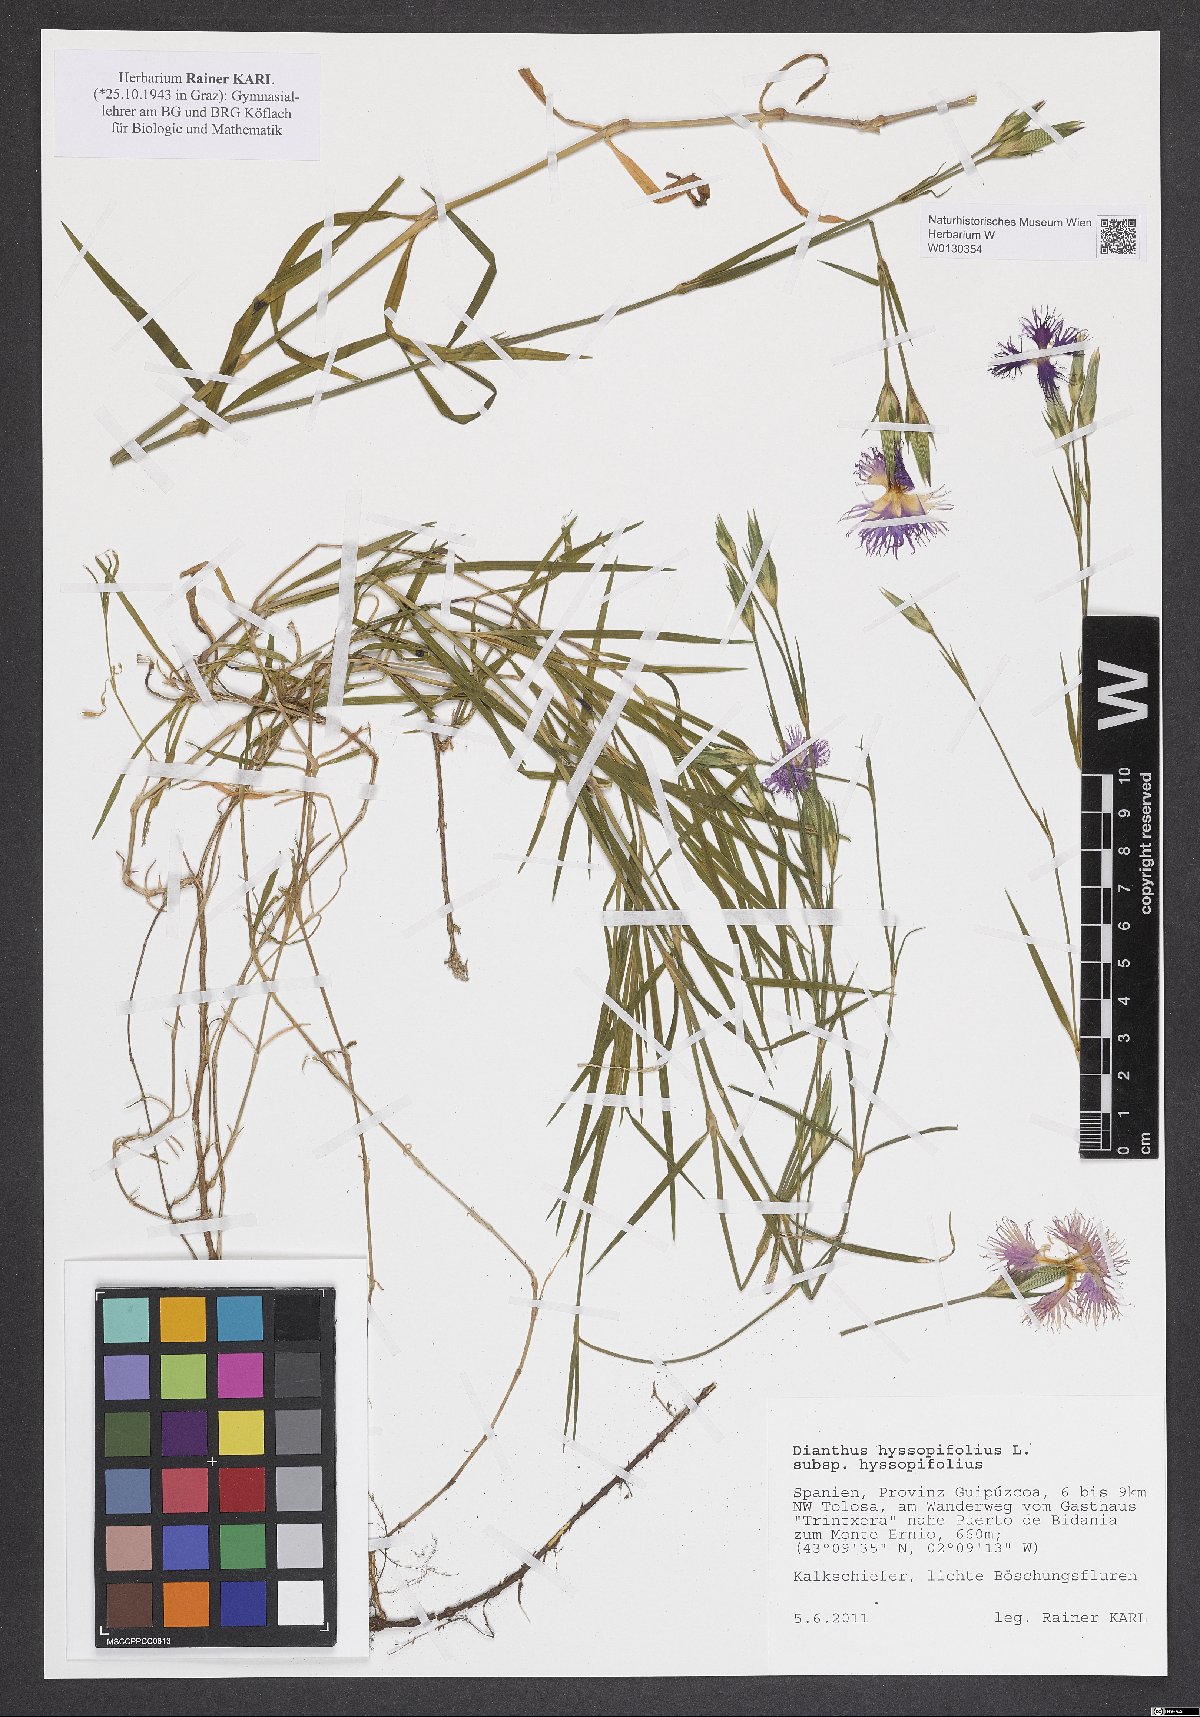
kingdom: Plantae
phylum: Tracheophyta
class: Magnoliopsida
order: Caryophyllales
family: Caryophyllaceae
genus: Dianthus
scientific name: Dianthus hyssopifolius
